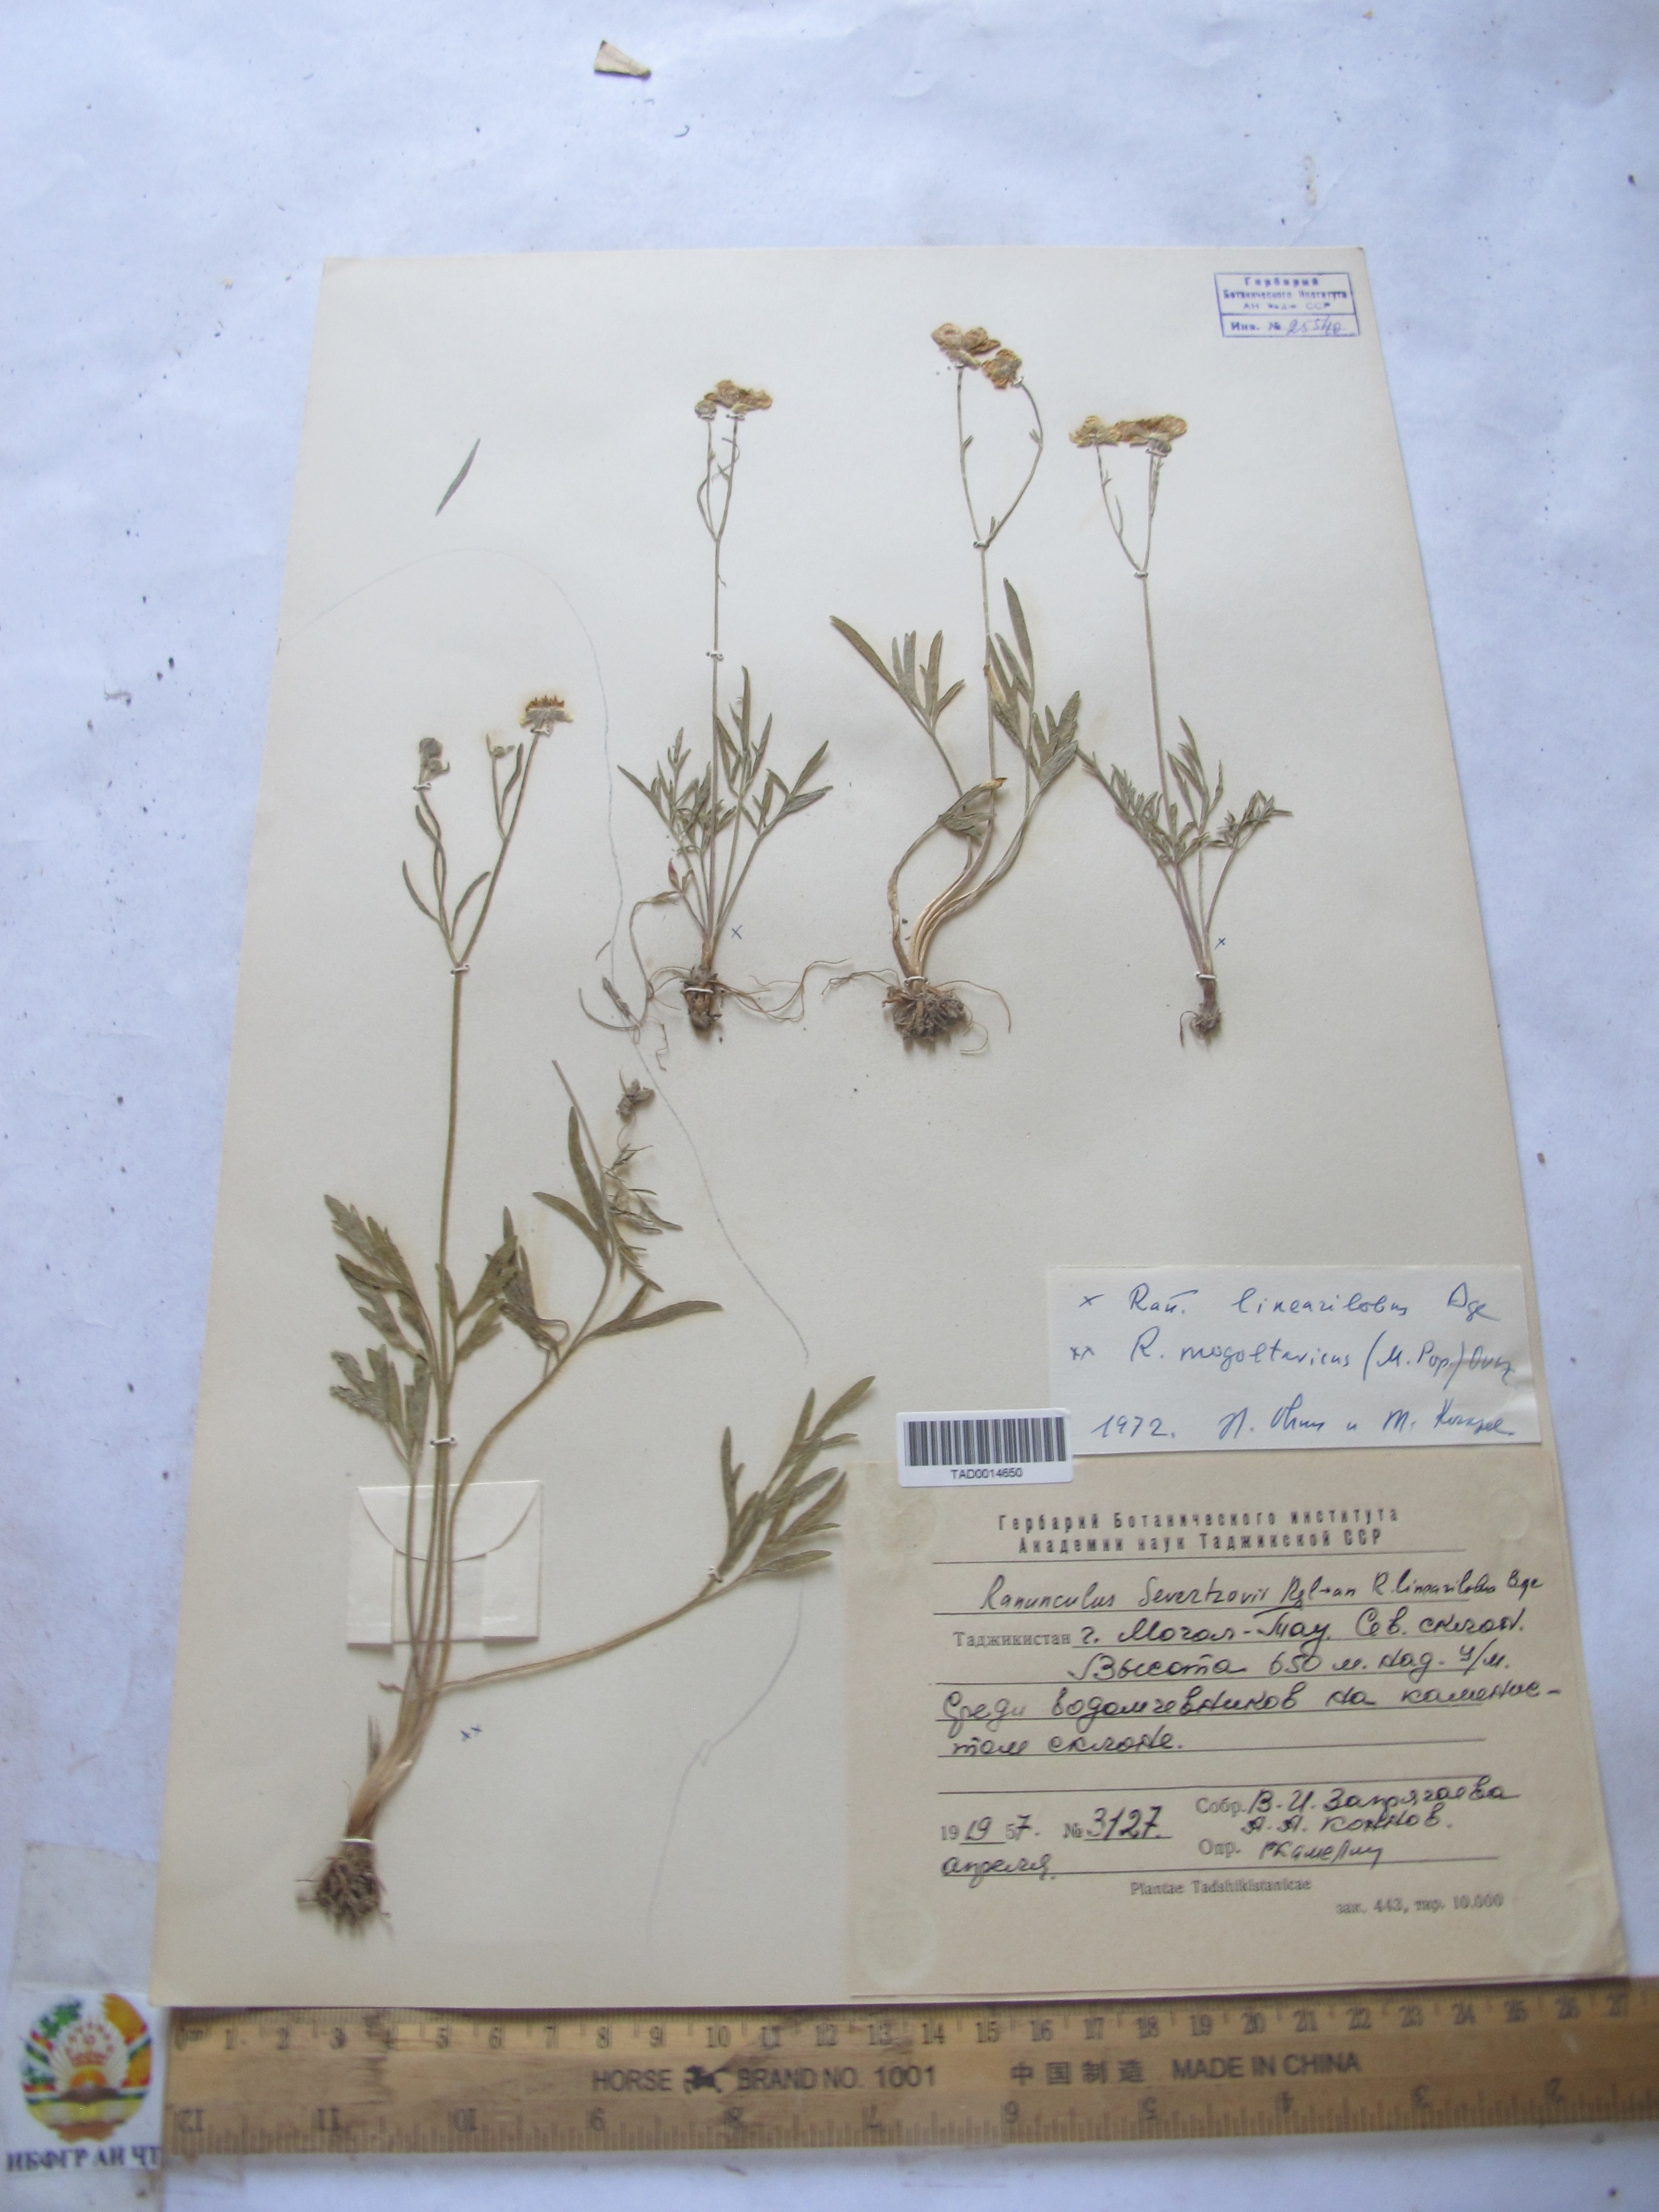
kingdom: Plantae
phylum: Tracheophyta
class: Magnoliopsida
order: Ranunculales
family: Ranunculaceae
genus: Ranunculus
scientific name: Ranunculus
